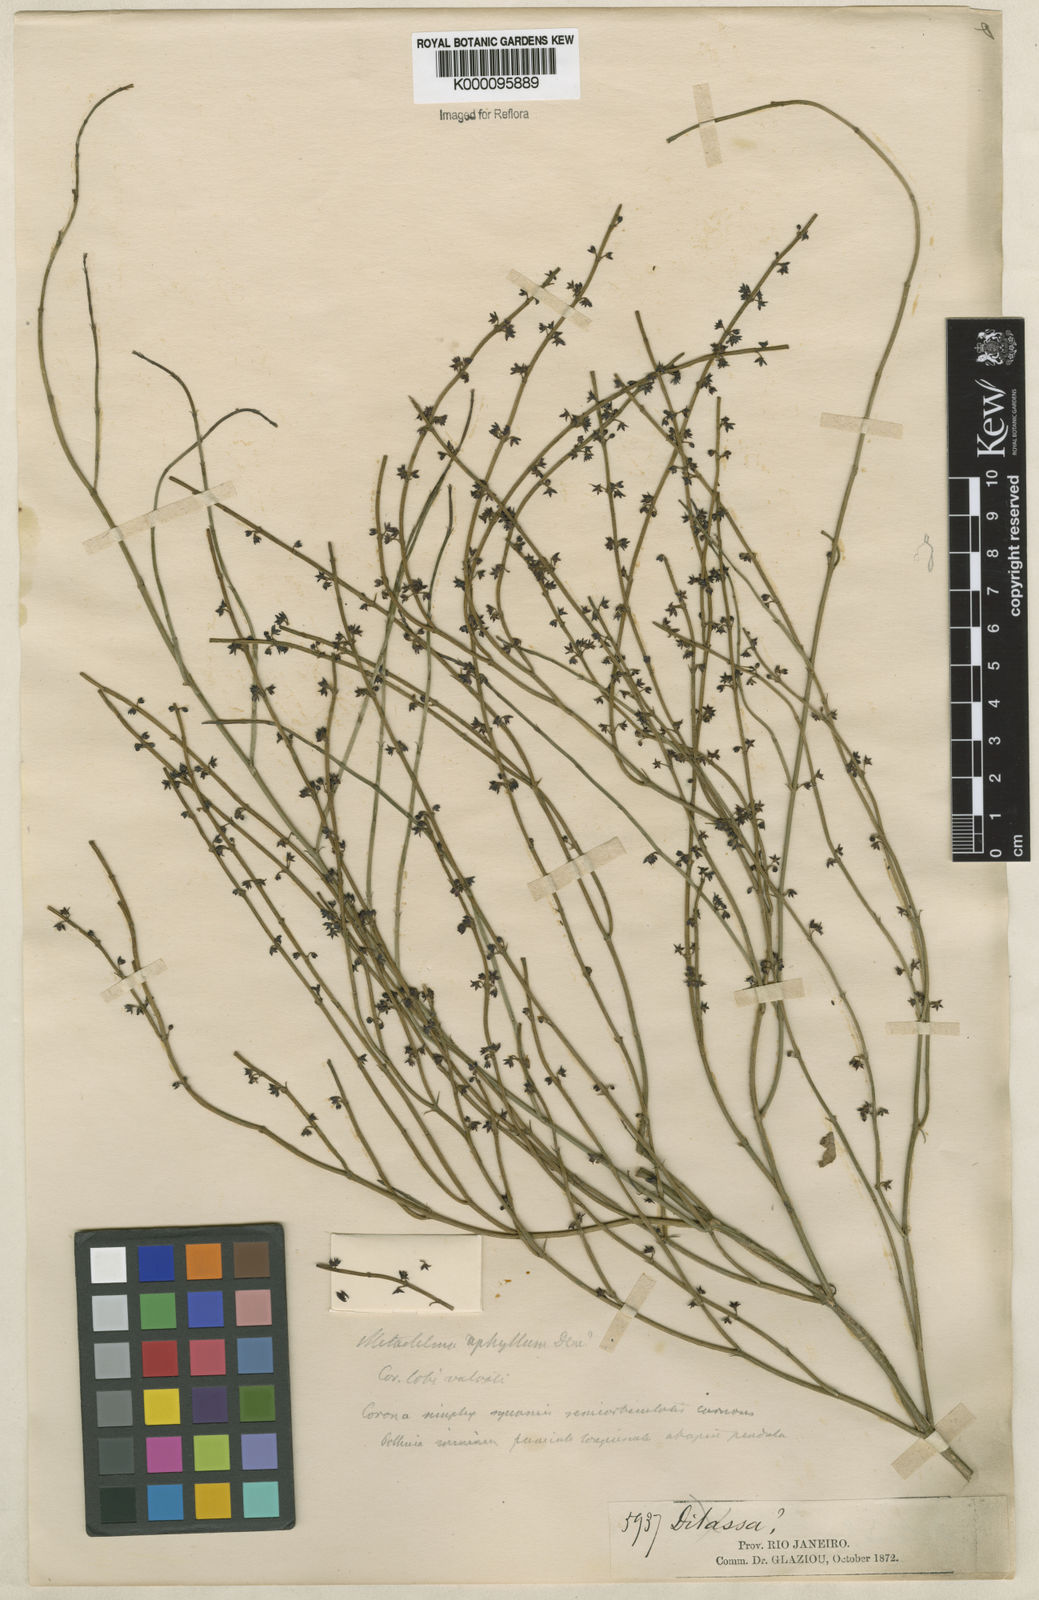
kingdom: Plantae
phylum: Tracheophyta
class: Magnoliopsida
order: Gentianales
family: Apocynaceae
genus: Orthosia
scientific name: Orthosia scoparia
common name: Leafless swallow-wort
